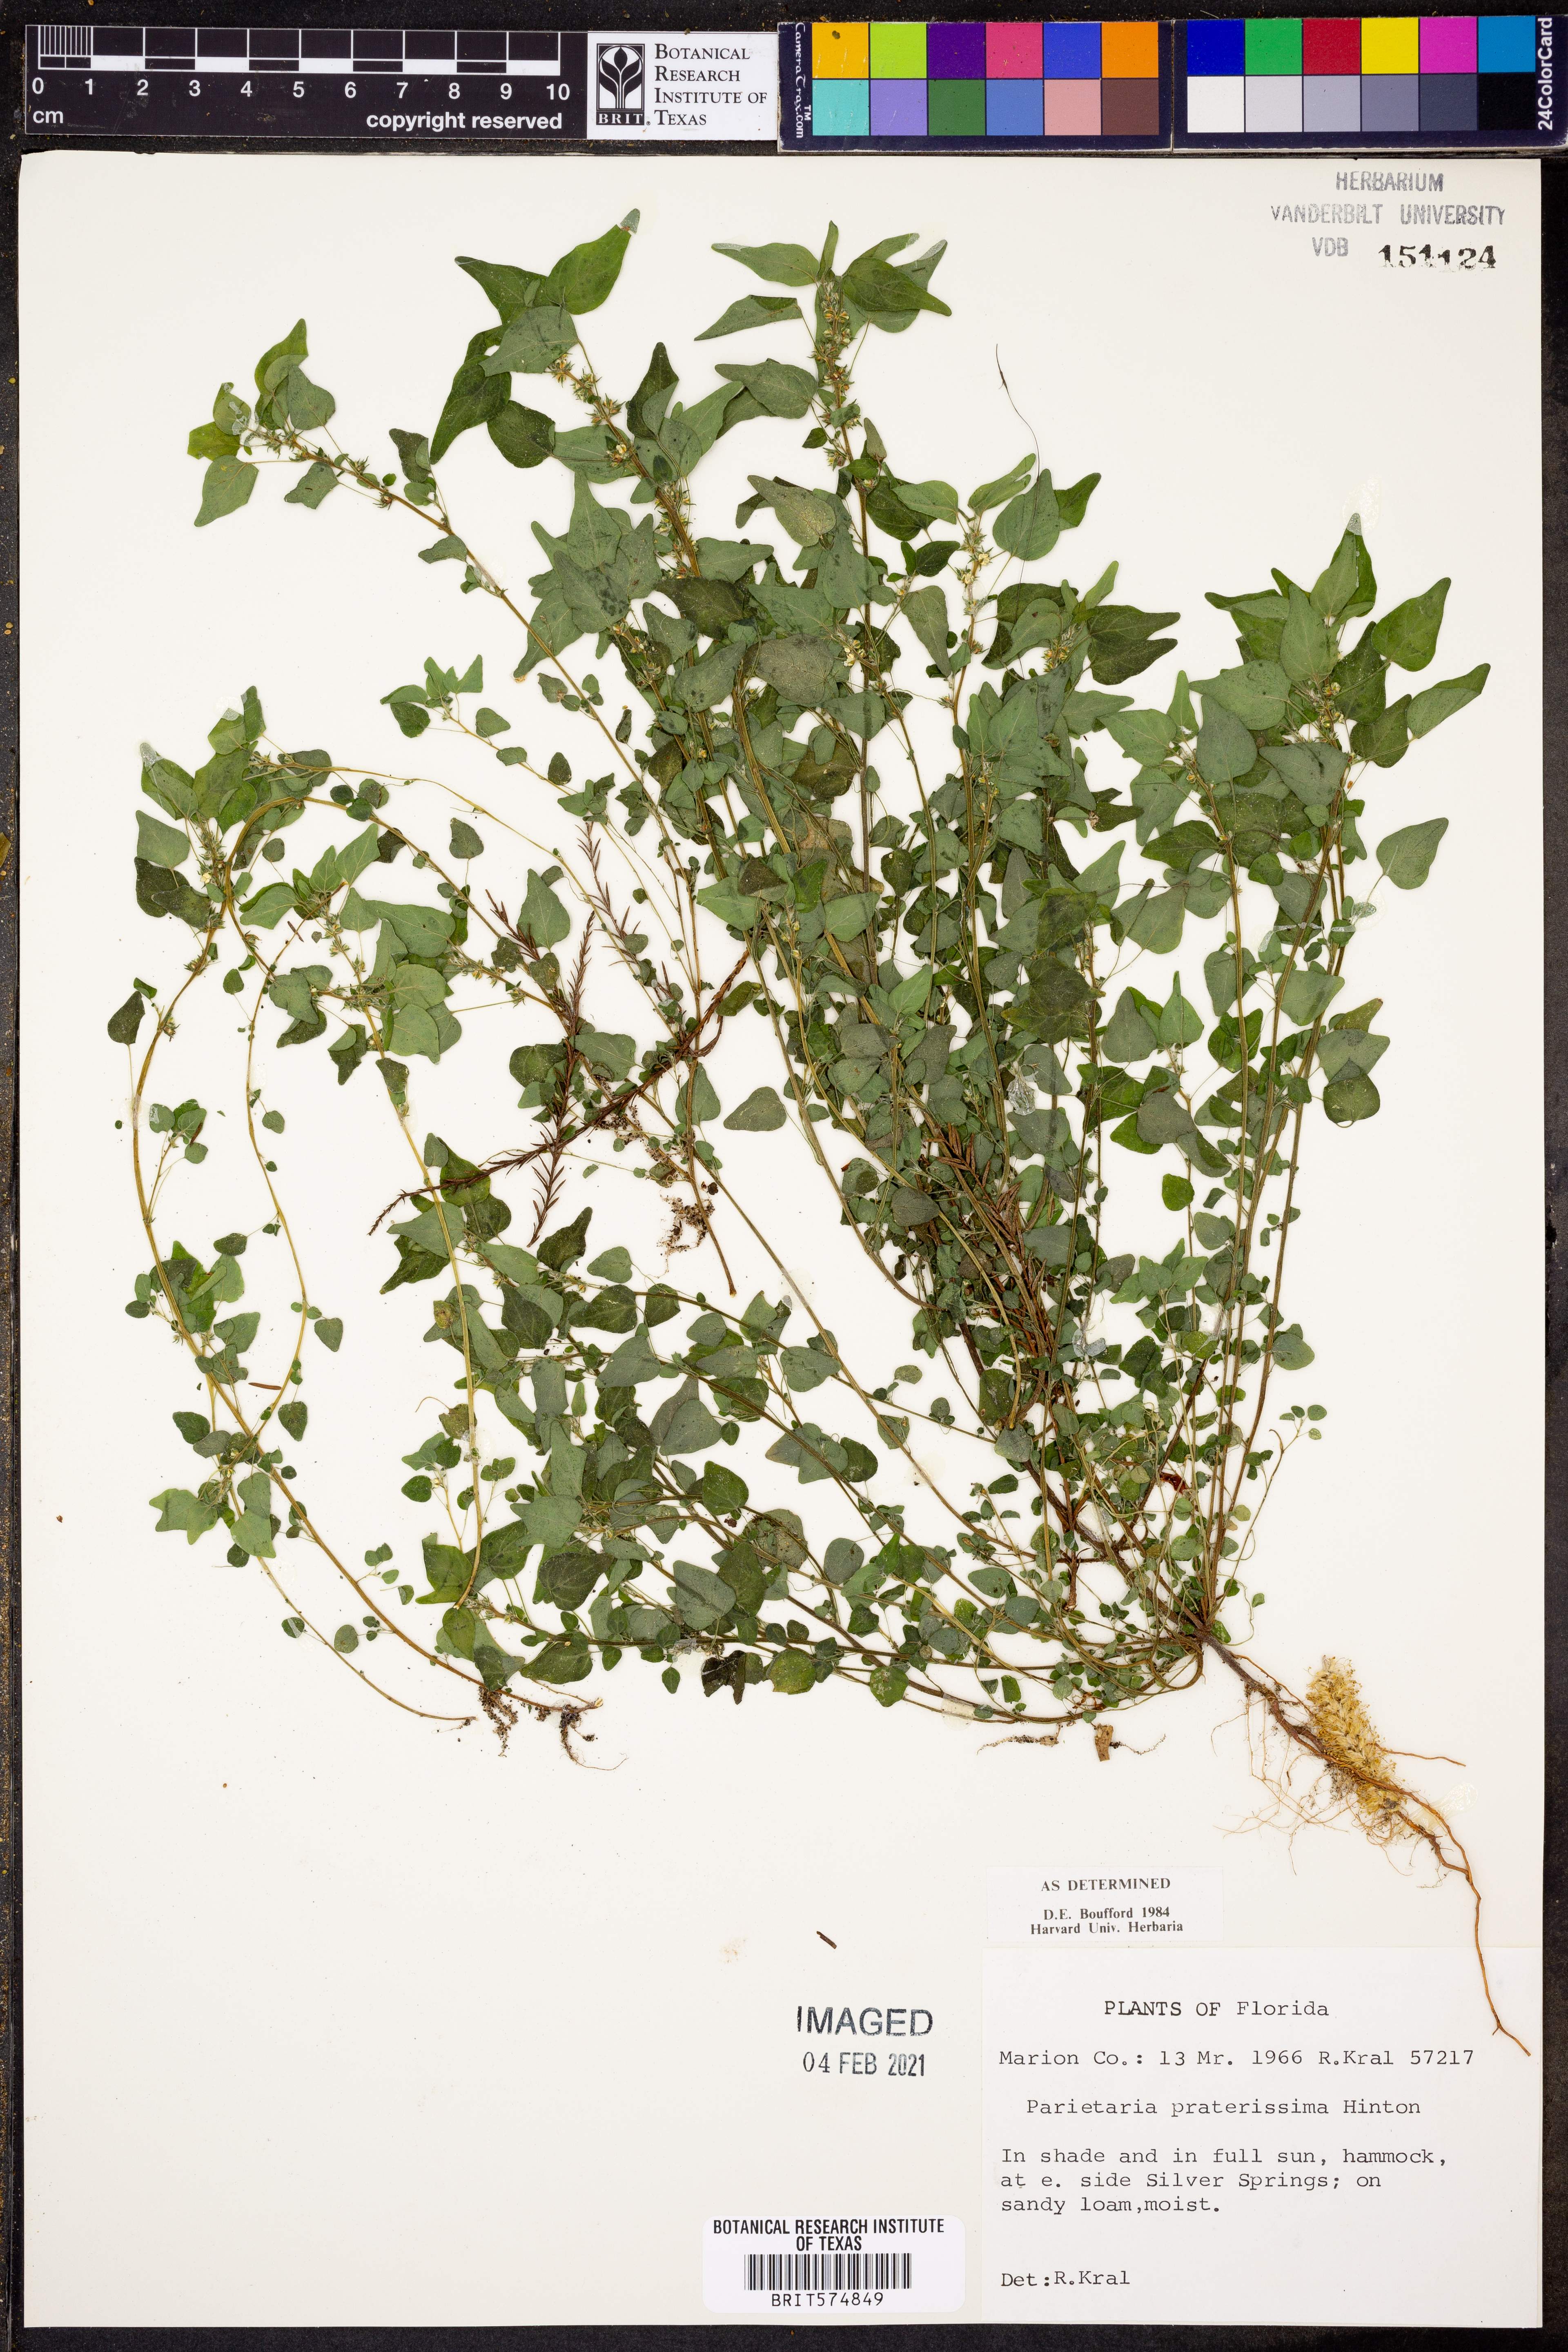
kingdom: Plantae
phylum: Tracheophyta
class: Magnoliopsida
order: Rosales
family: Urticaceae
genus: Parietaria
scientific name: Parietaria praetermissa
